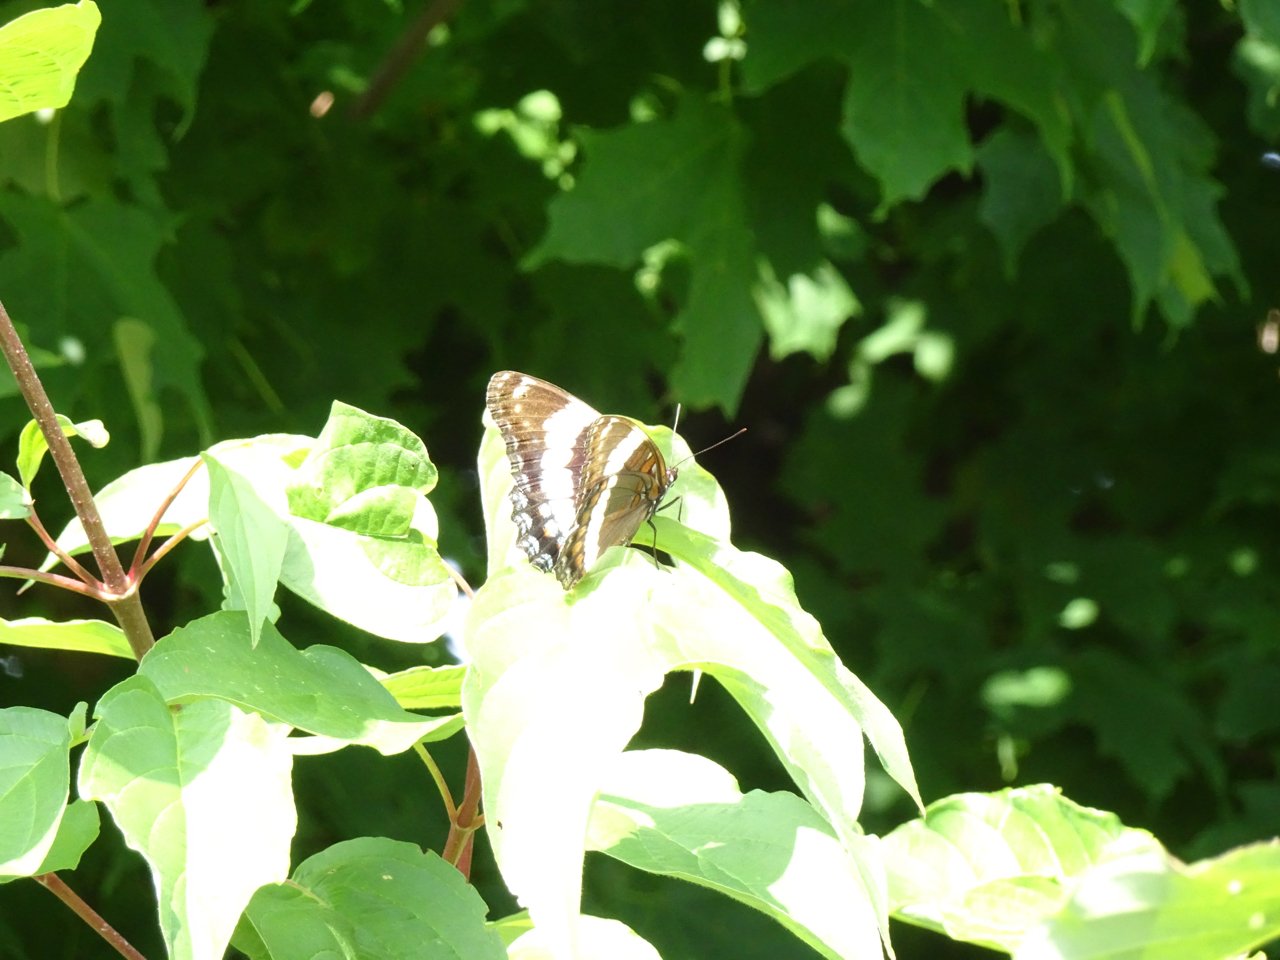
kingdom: Animalia
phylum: Arthropoda
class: Insecta
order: Lepidoptera
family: Nymphalidae
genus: Limenitis
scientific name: Limenitis arthemis
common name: Red-spotted Admiral
